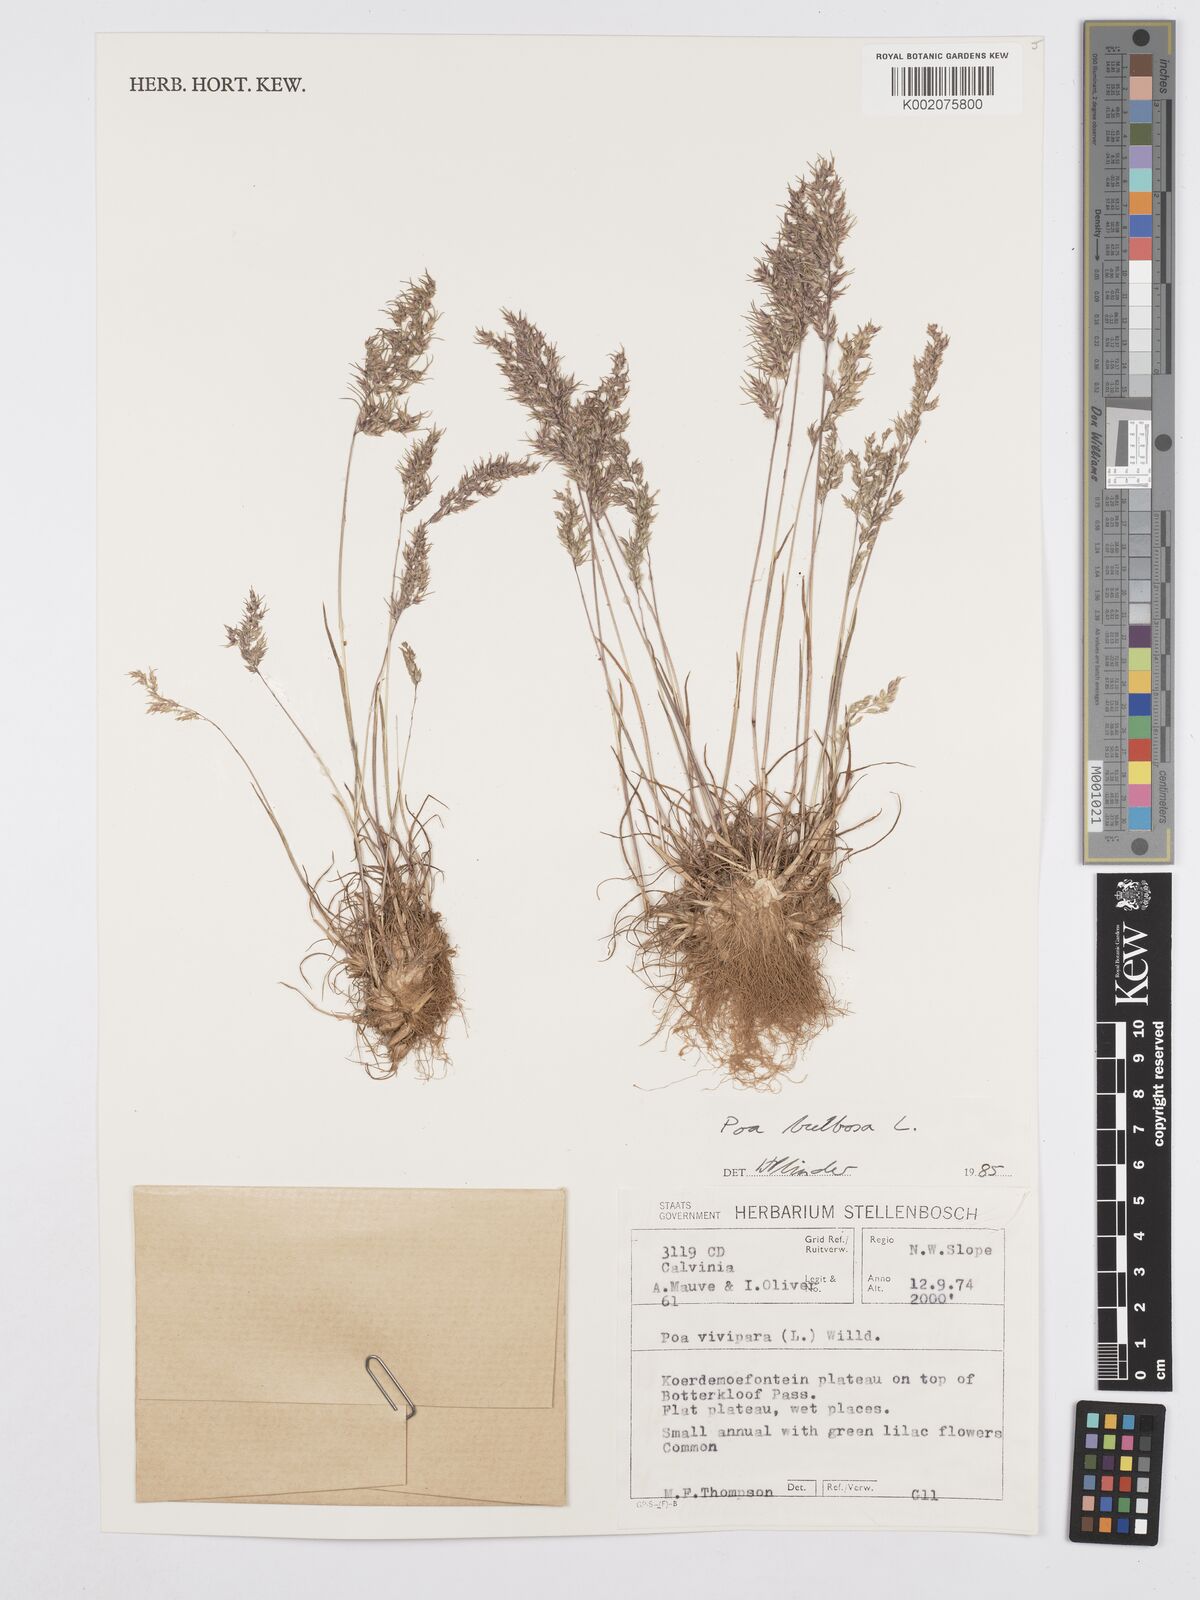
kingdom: Plantae
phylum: Tracheophyta
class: Liliopsida
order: Poales
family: Poaceae
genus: Poa
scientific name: Poa bulbosa
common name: Bulbous bluegrass
